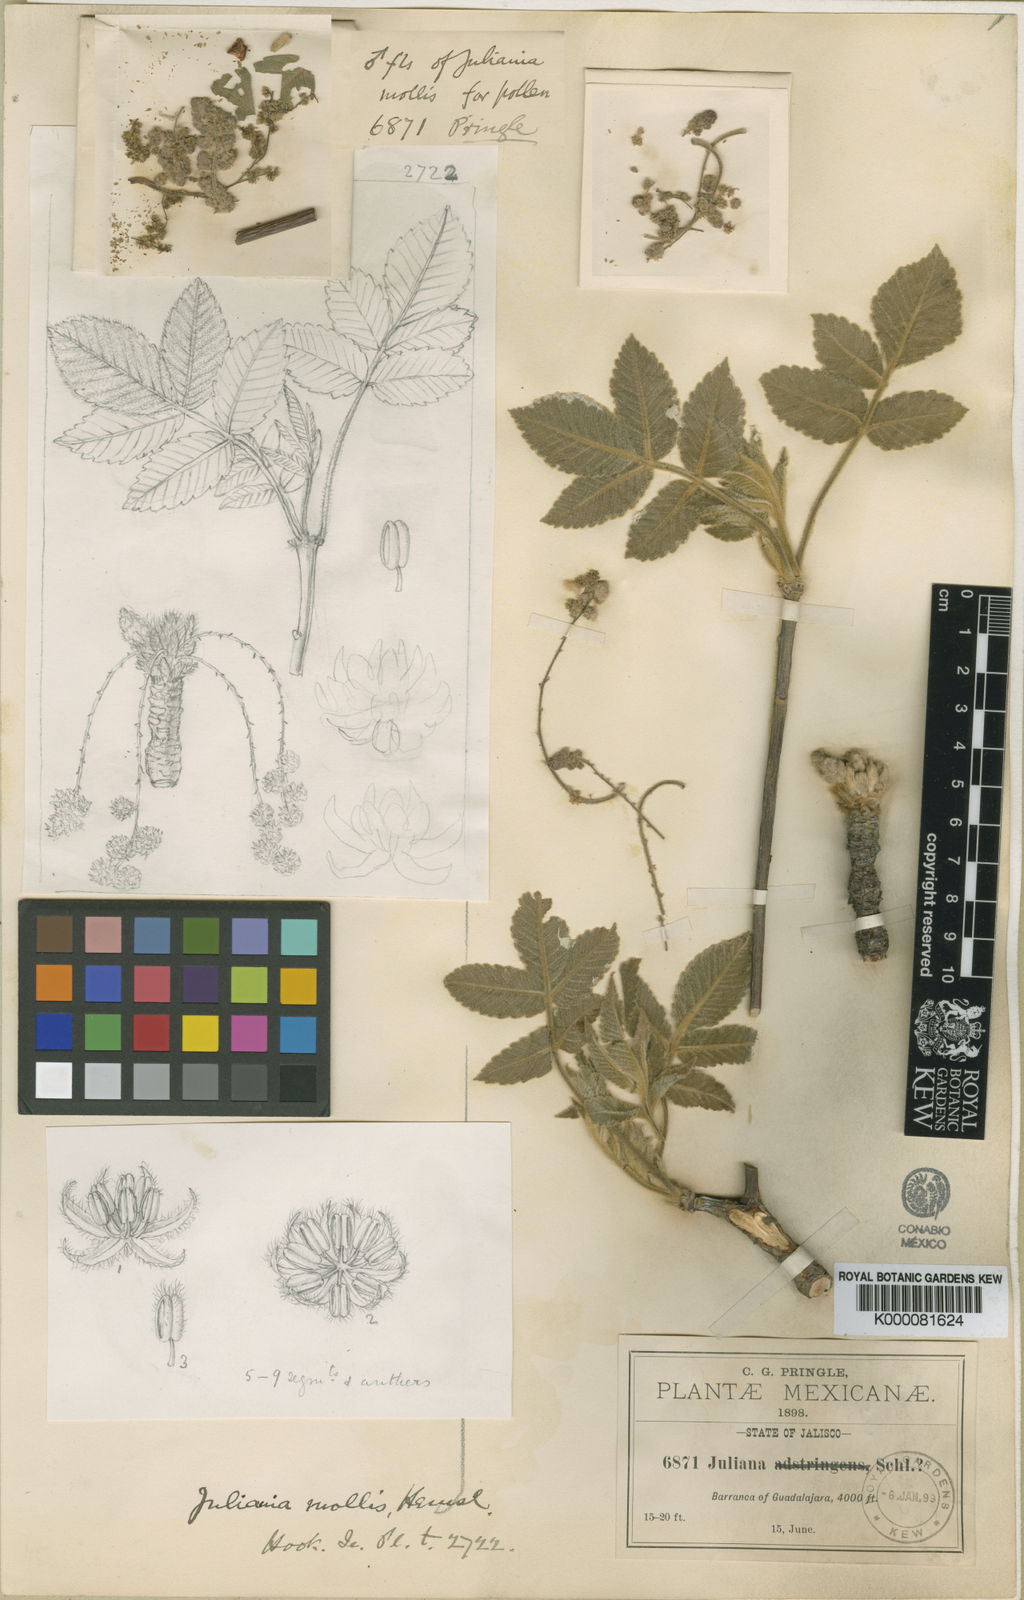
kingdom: Plantae
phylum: Tracheophyta
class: Magnoliopsida
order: Sapindales
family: Anacardiaceae
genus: Amphipterygium
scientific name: Amphipterygium
